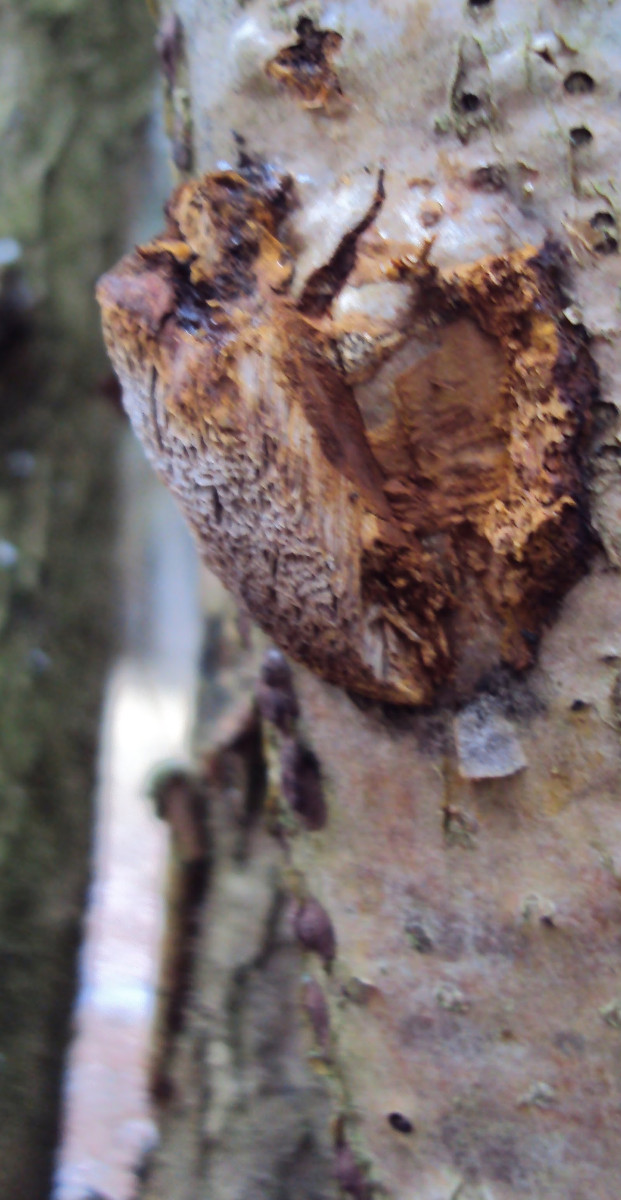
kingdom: Fungi
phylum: Basidiomycota
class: Agaricomycetes
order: Hymenochaetales
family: Hymenochaetaceae
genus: Xanthoporia
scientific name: Xanthoporia radiata
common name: elle-spejlporesvamp
